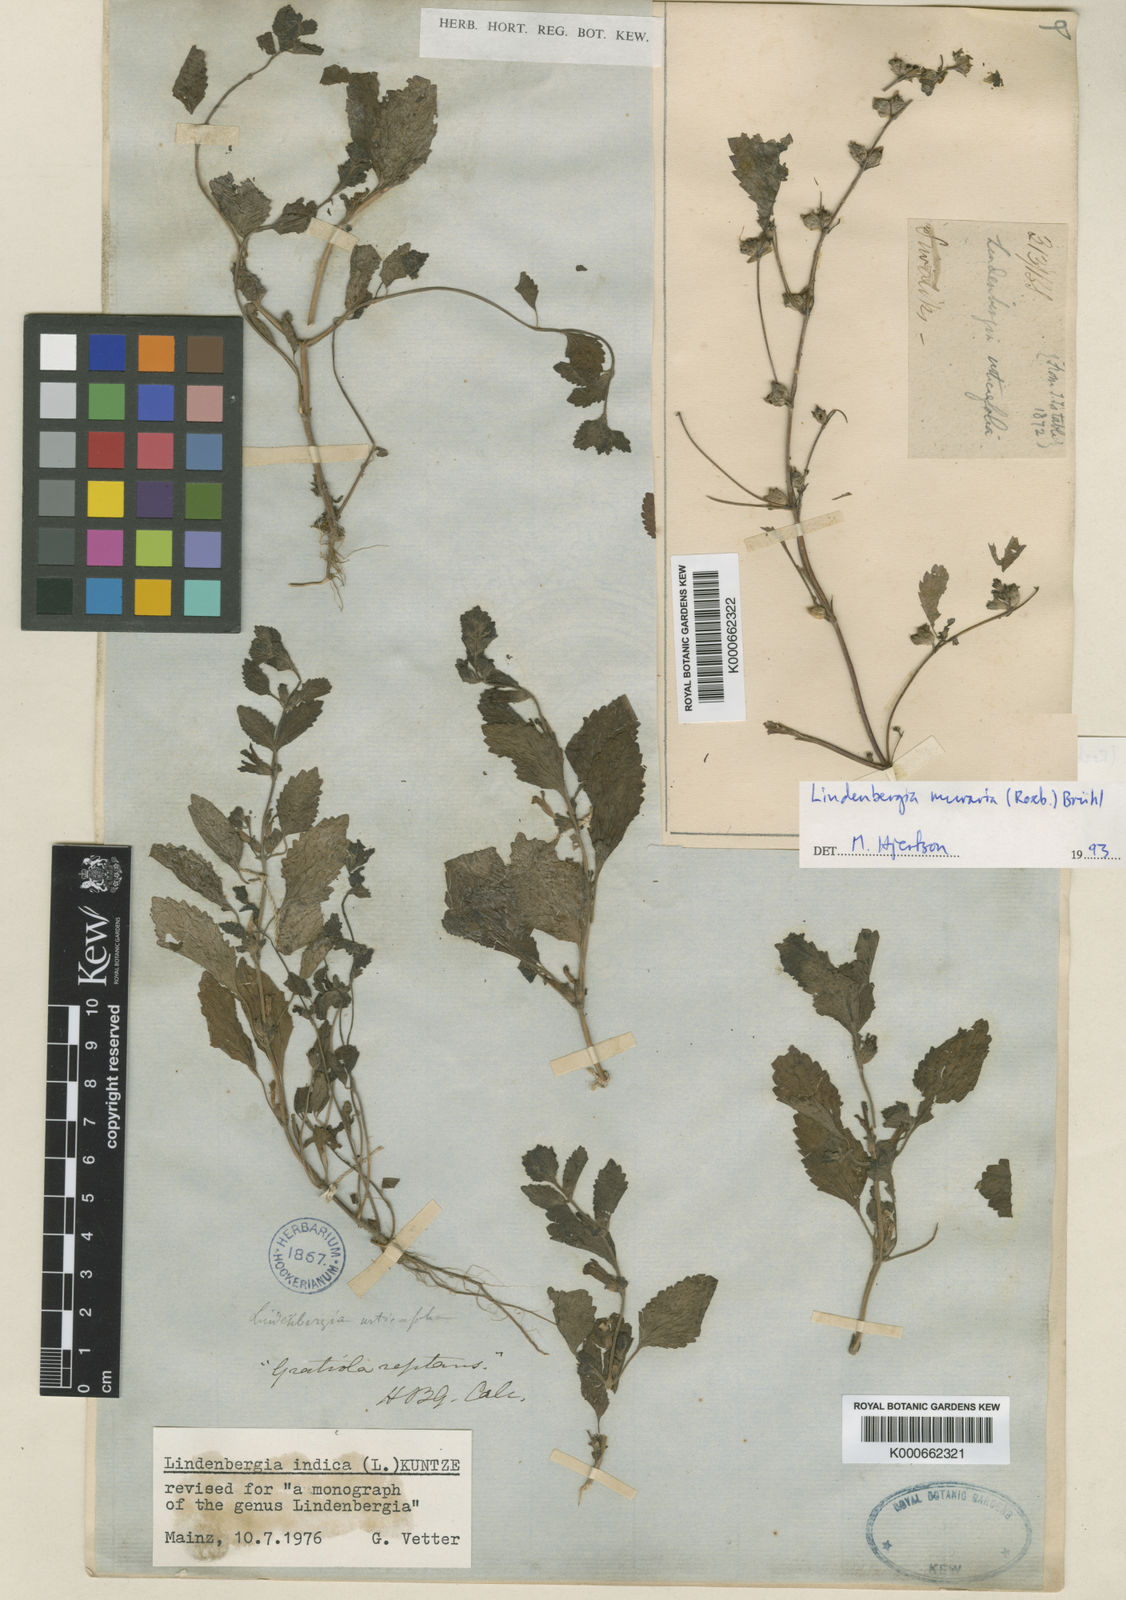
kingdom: Plantae
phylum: Tracheophyta
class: Magnoliopsida
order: Lamiales
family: Orobanchaceae
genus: Lindenbergia
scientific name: Lindenbergia
